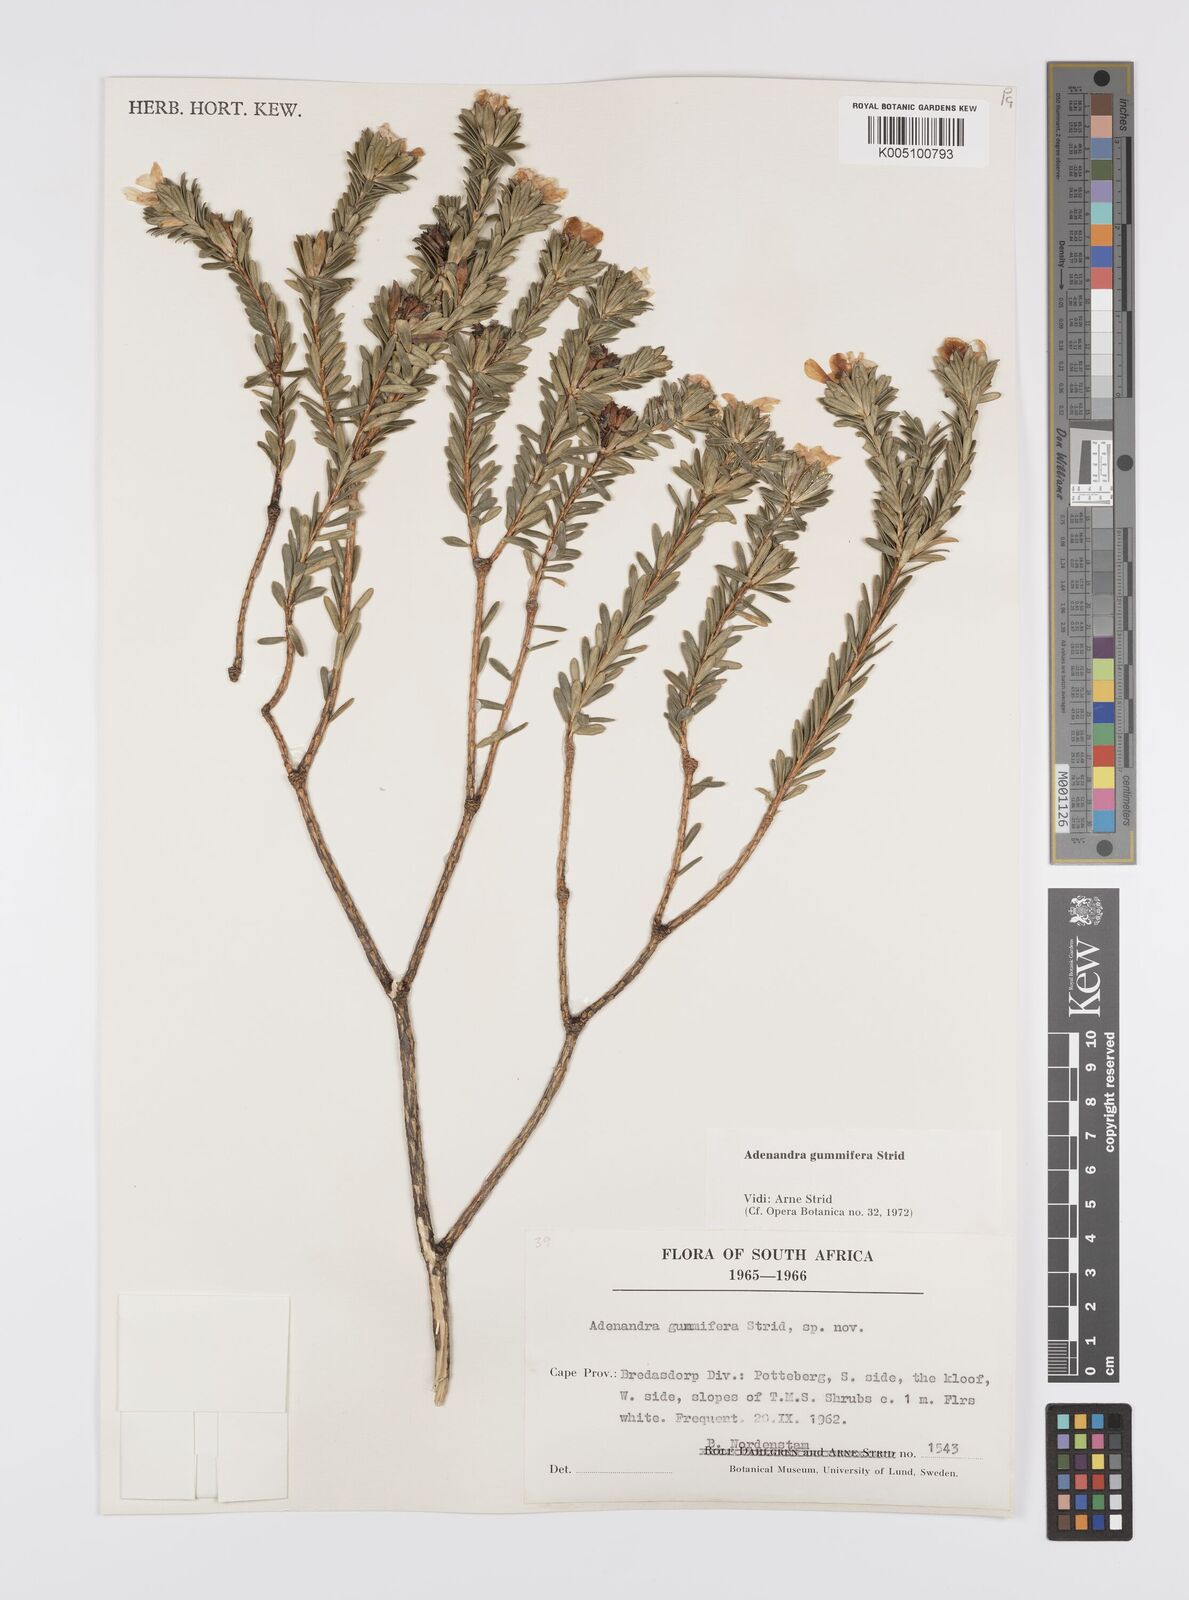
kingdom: Plantae
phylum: Tracheophyta
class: Magnoliopsida
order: Sapindales
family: Rutaceae
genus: Adenandra
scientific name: Adenandra gummifera
